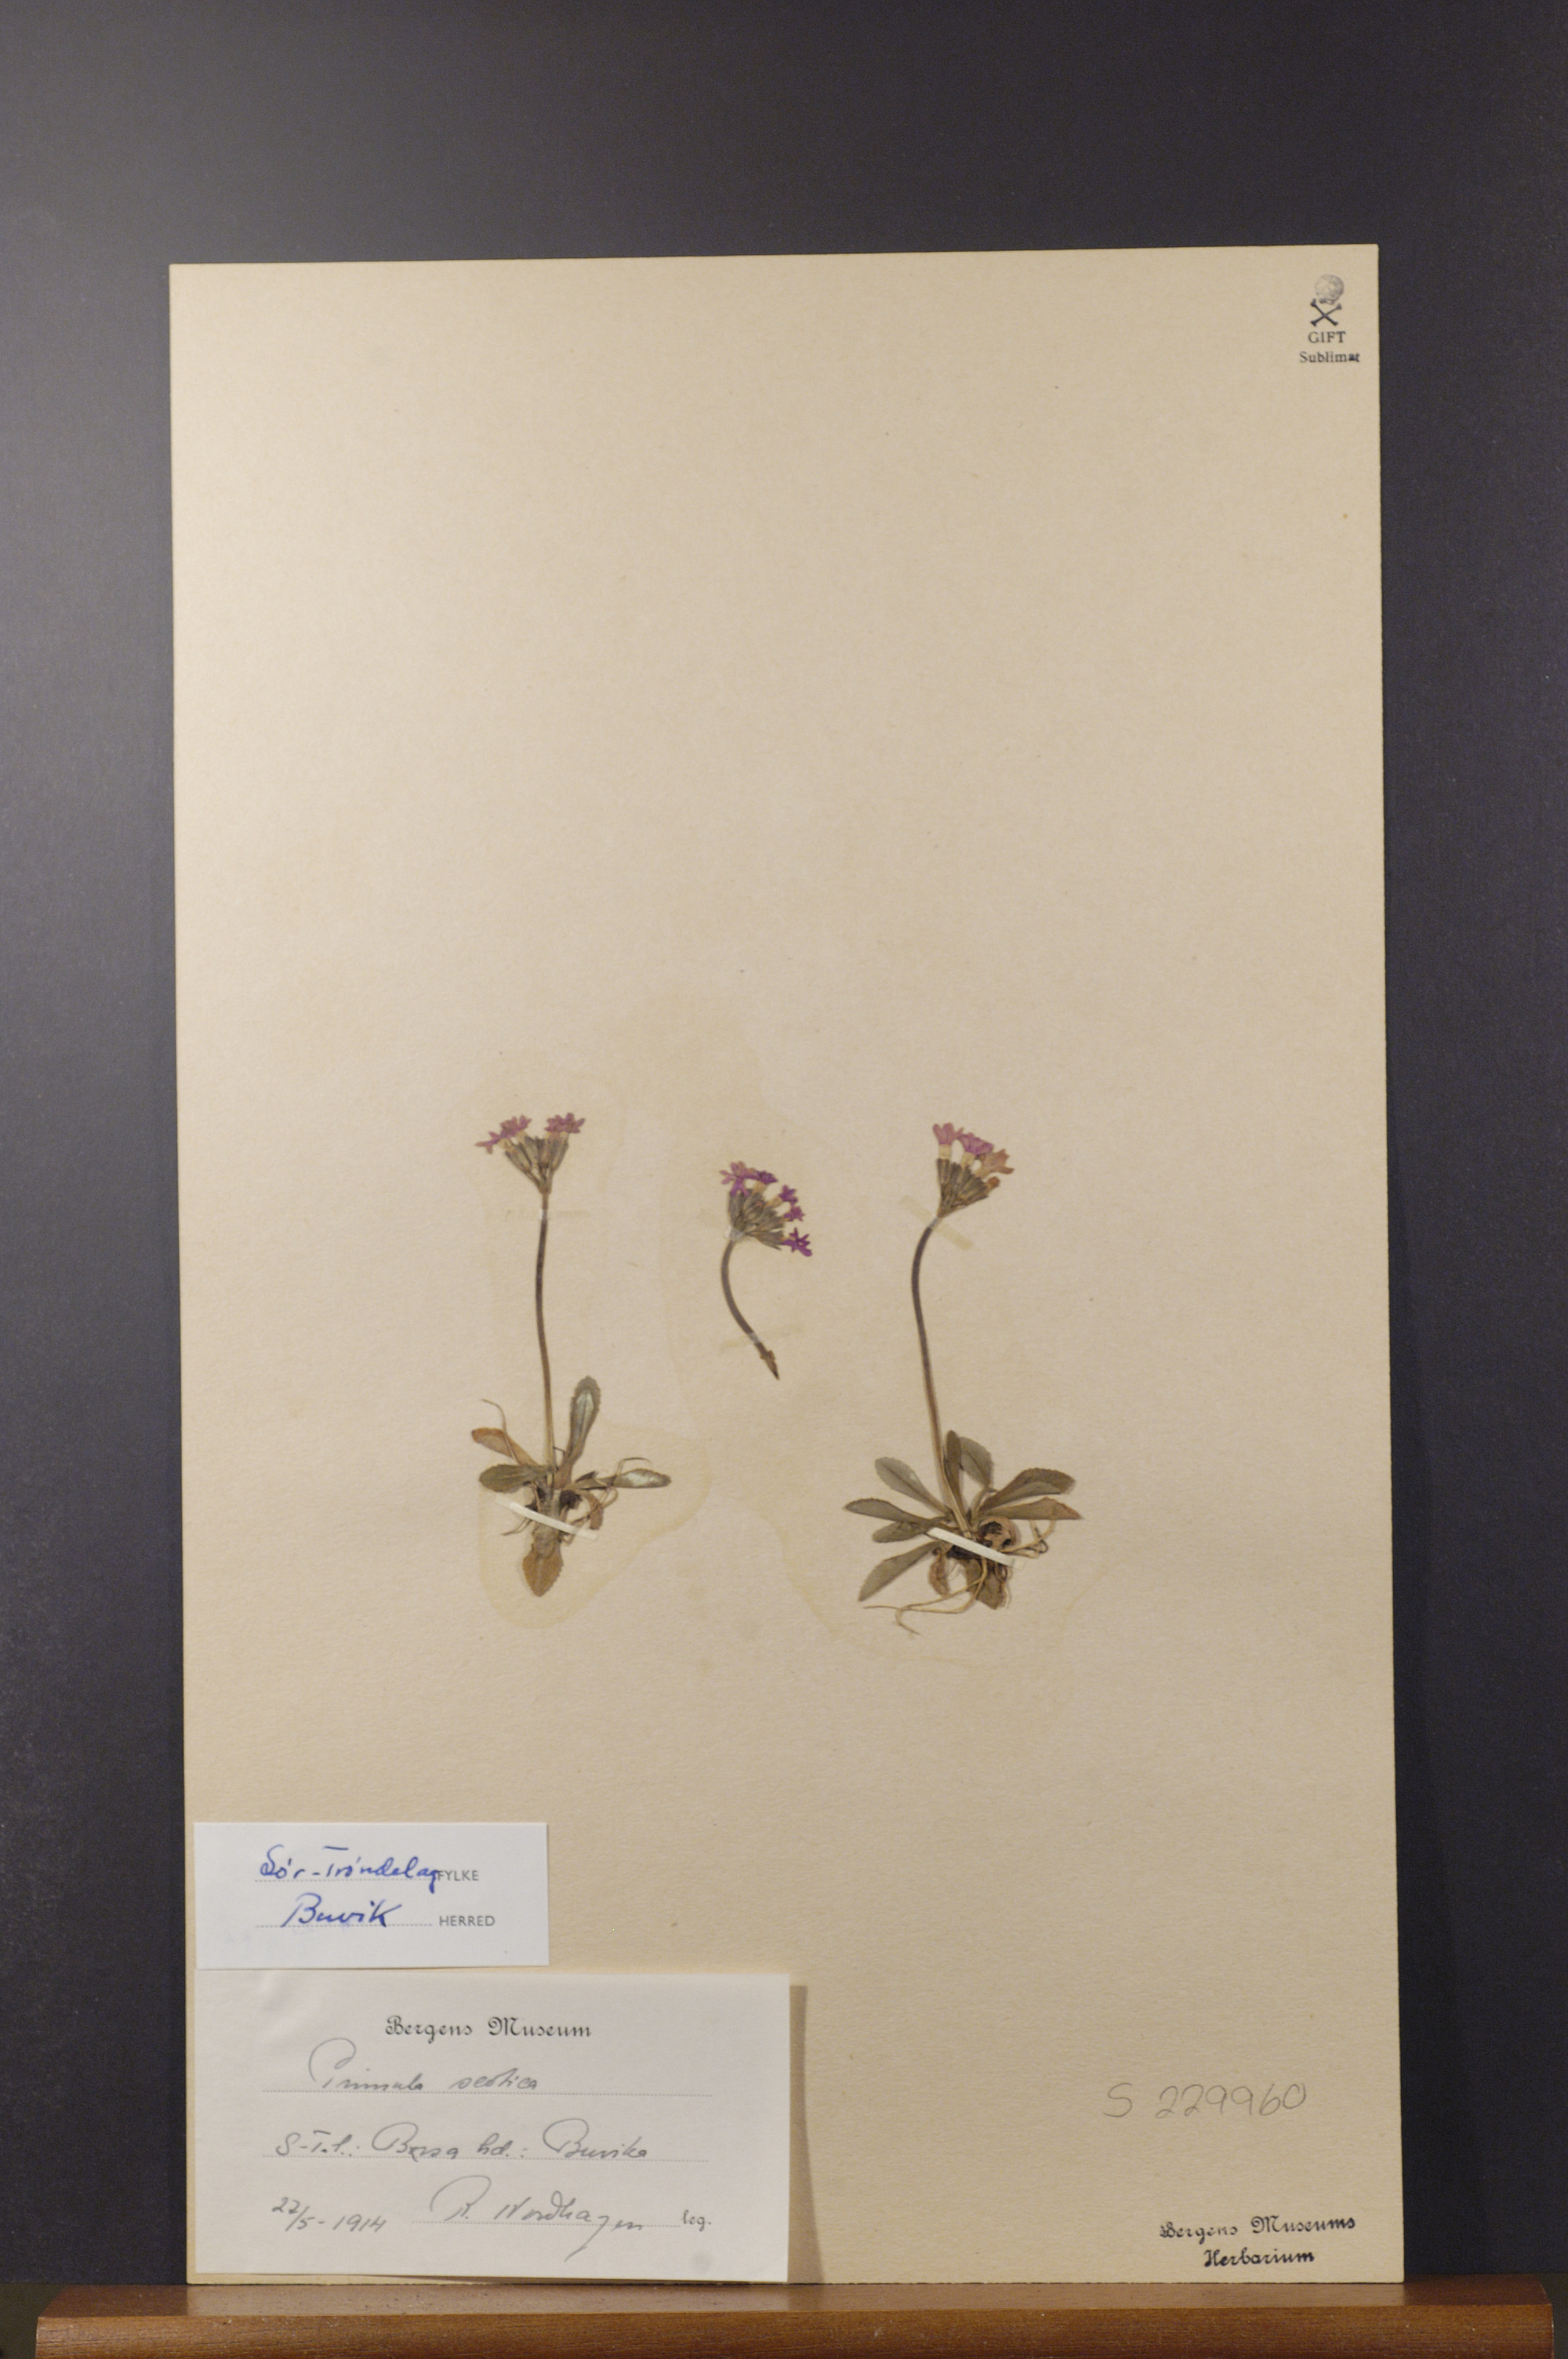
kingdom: Plantae
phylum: Tracheophyta
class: Magnoliopsida
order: Ericales
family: Primulaceae
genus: Primula
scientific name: Primula scandinavica
